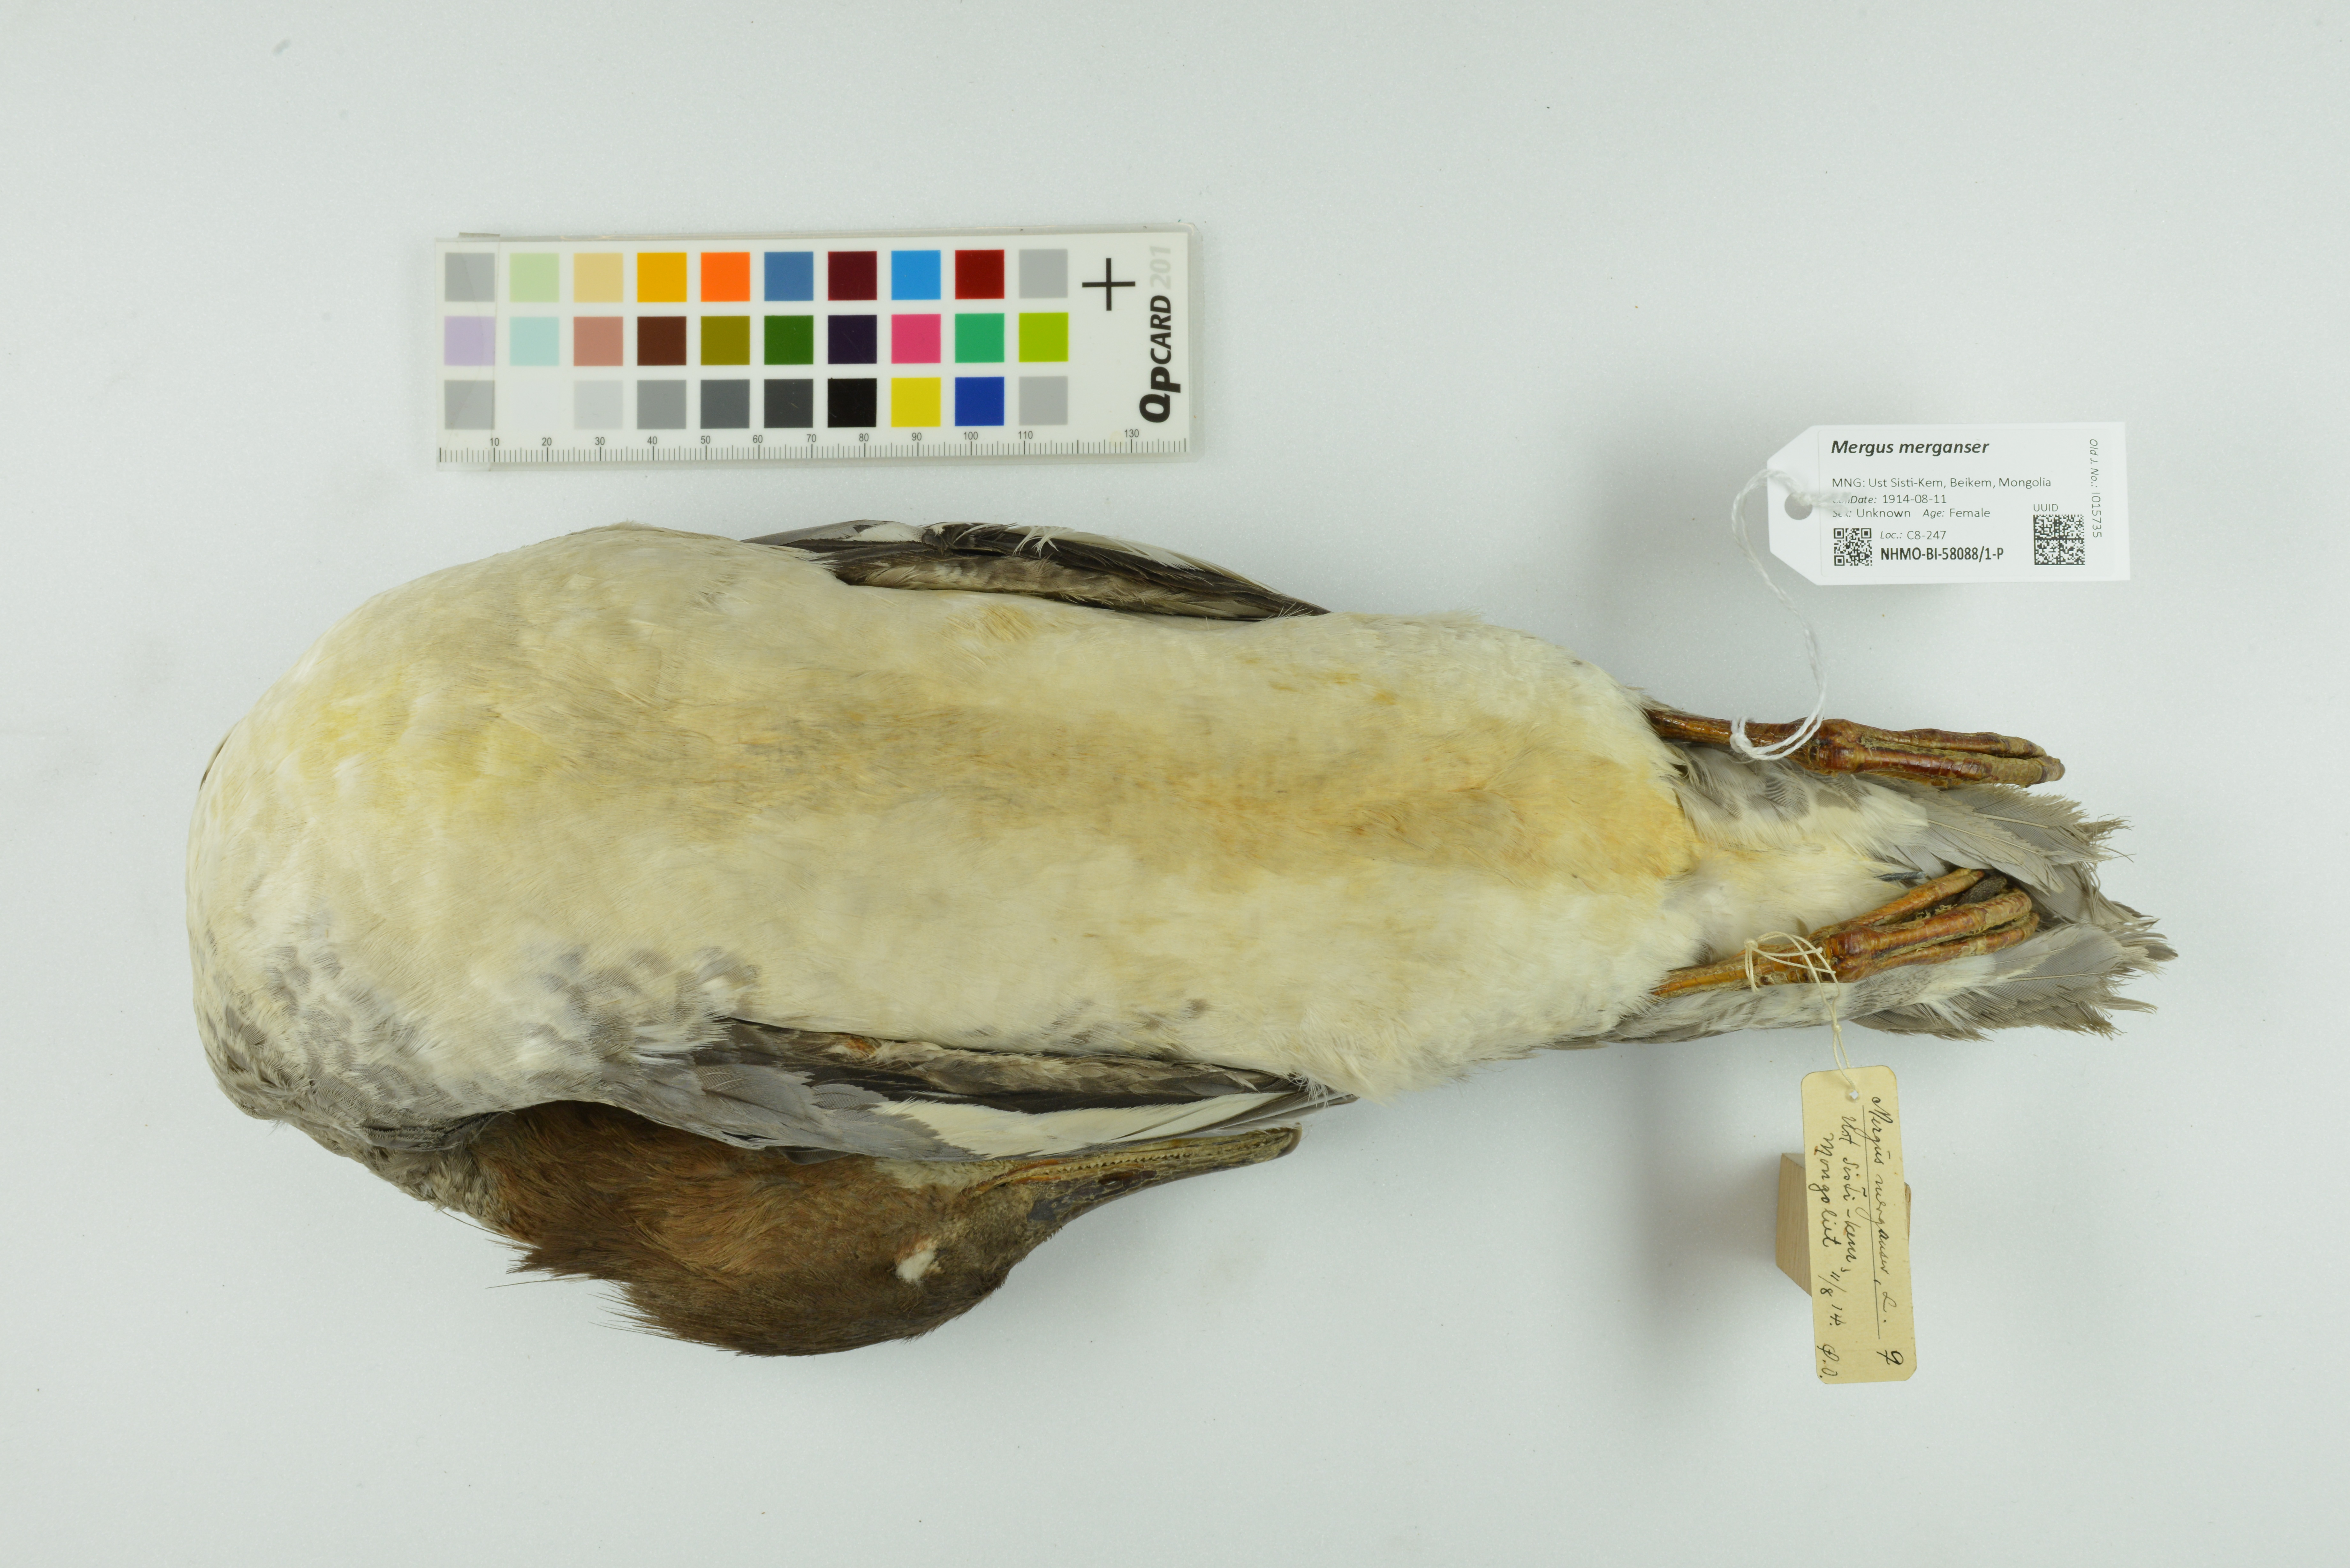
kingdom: Animalia
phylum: Chordata
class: Aves
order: Anseriformes
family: Anatidae
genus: Mergus
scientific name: Mergus merganser
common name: Common merganser
